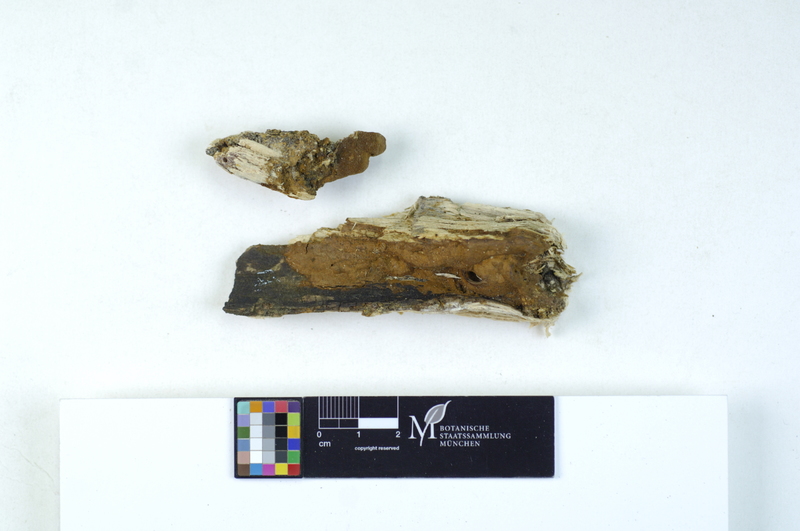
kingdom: Plantae
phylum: Tracheophyta
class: Magnoliopsida
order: Cornales
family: Cornaceae
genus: Cornus
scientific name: Cornus
